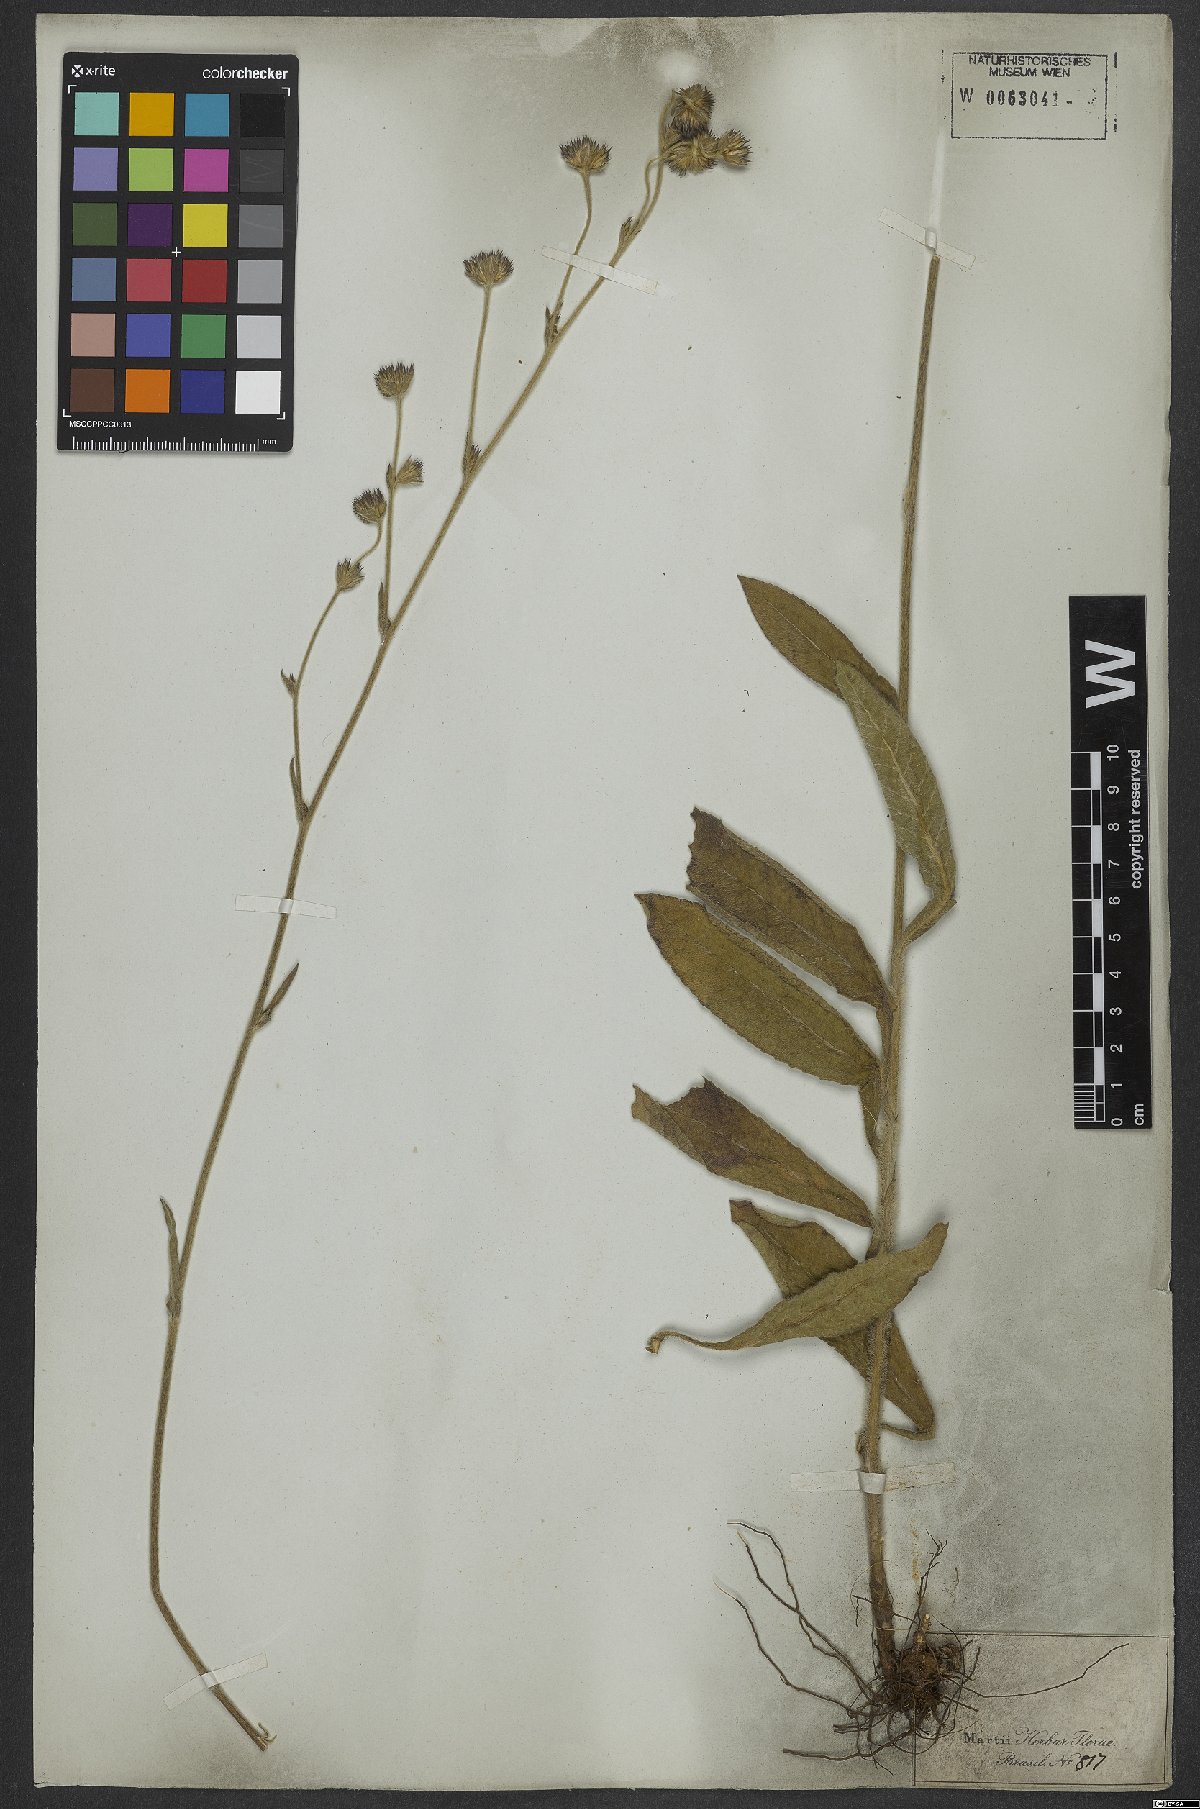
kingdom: Plantae
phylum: Tracheophyta
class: Magnoliopsida
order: Asterales
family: Asteraceae
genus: Elephantopus
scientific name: Elephantopus mollis
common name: Soft elephantsfoot
